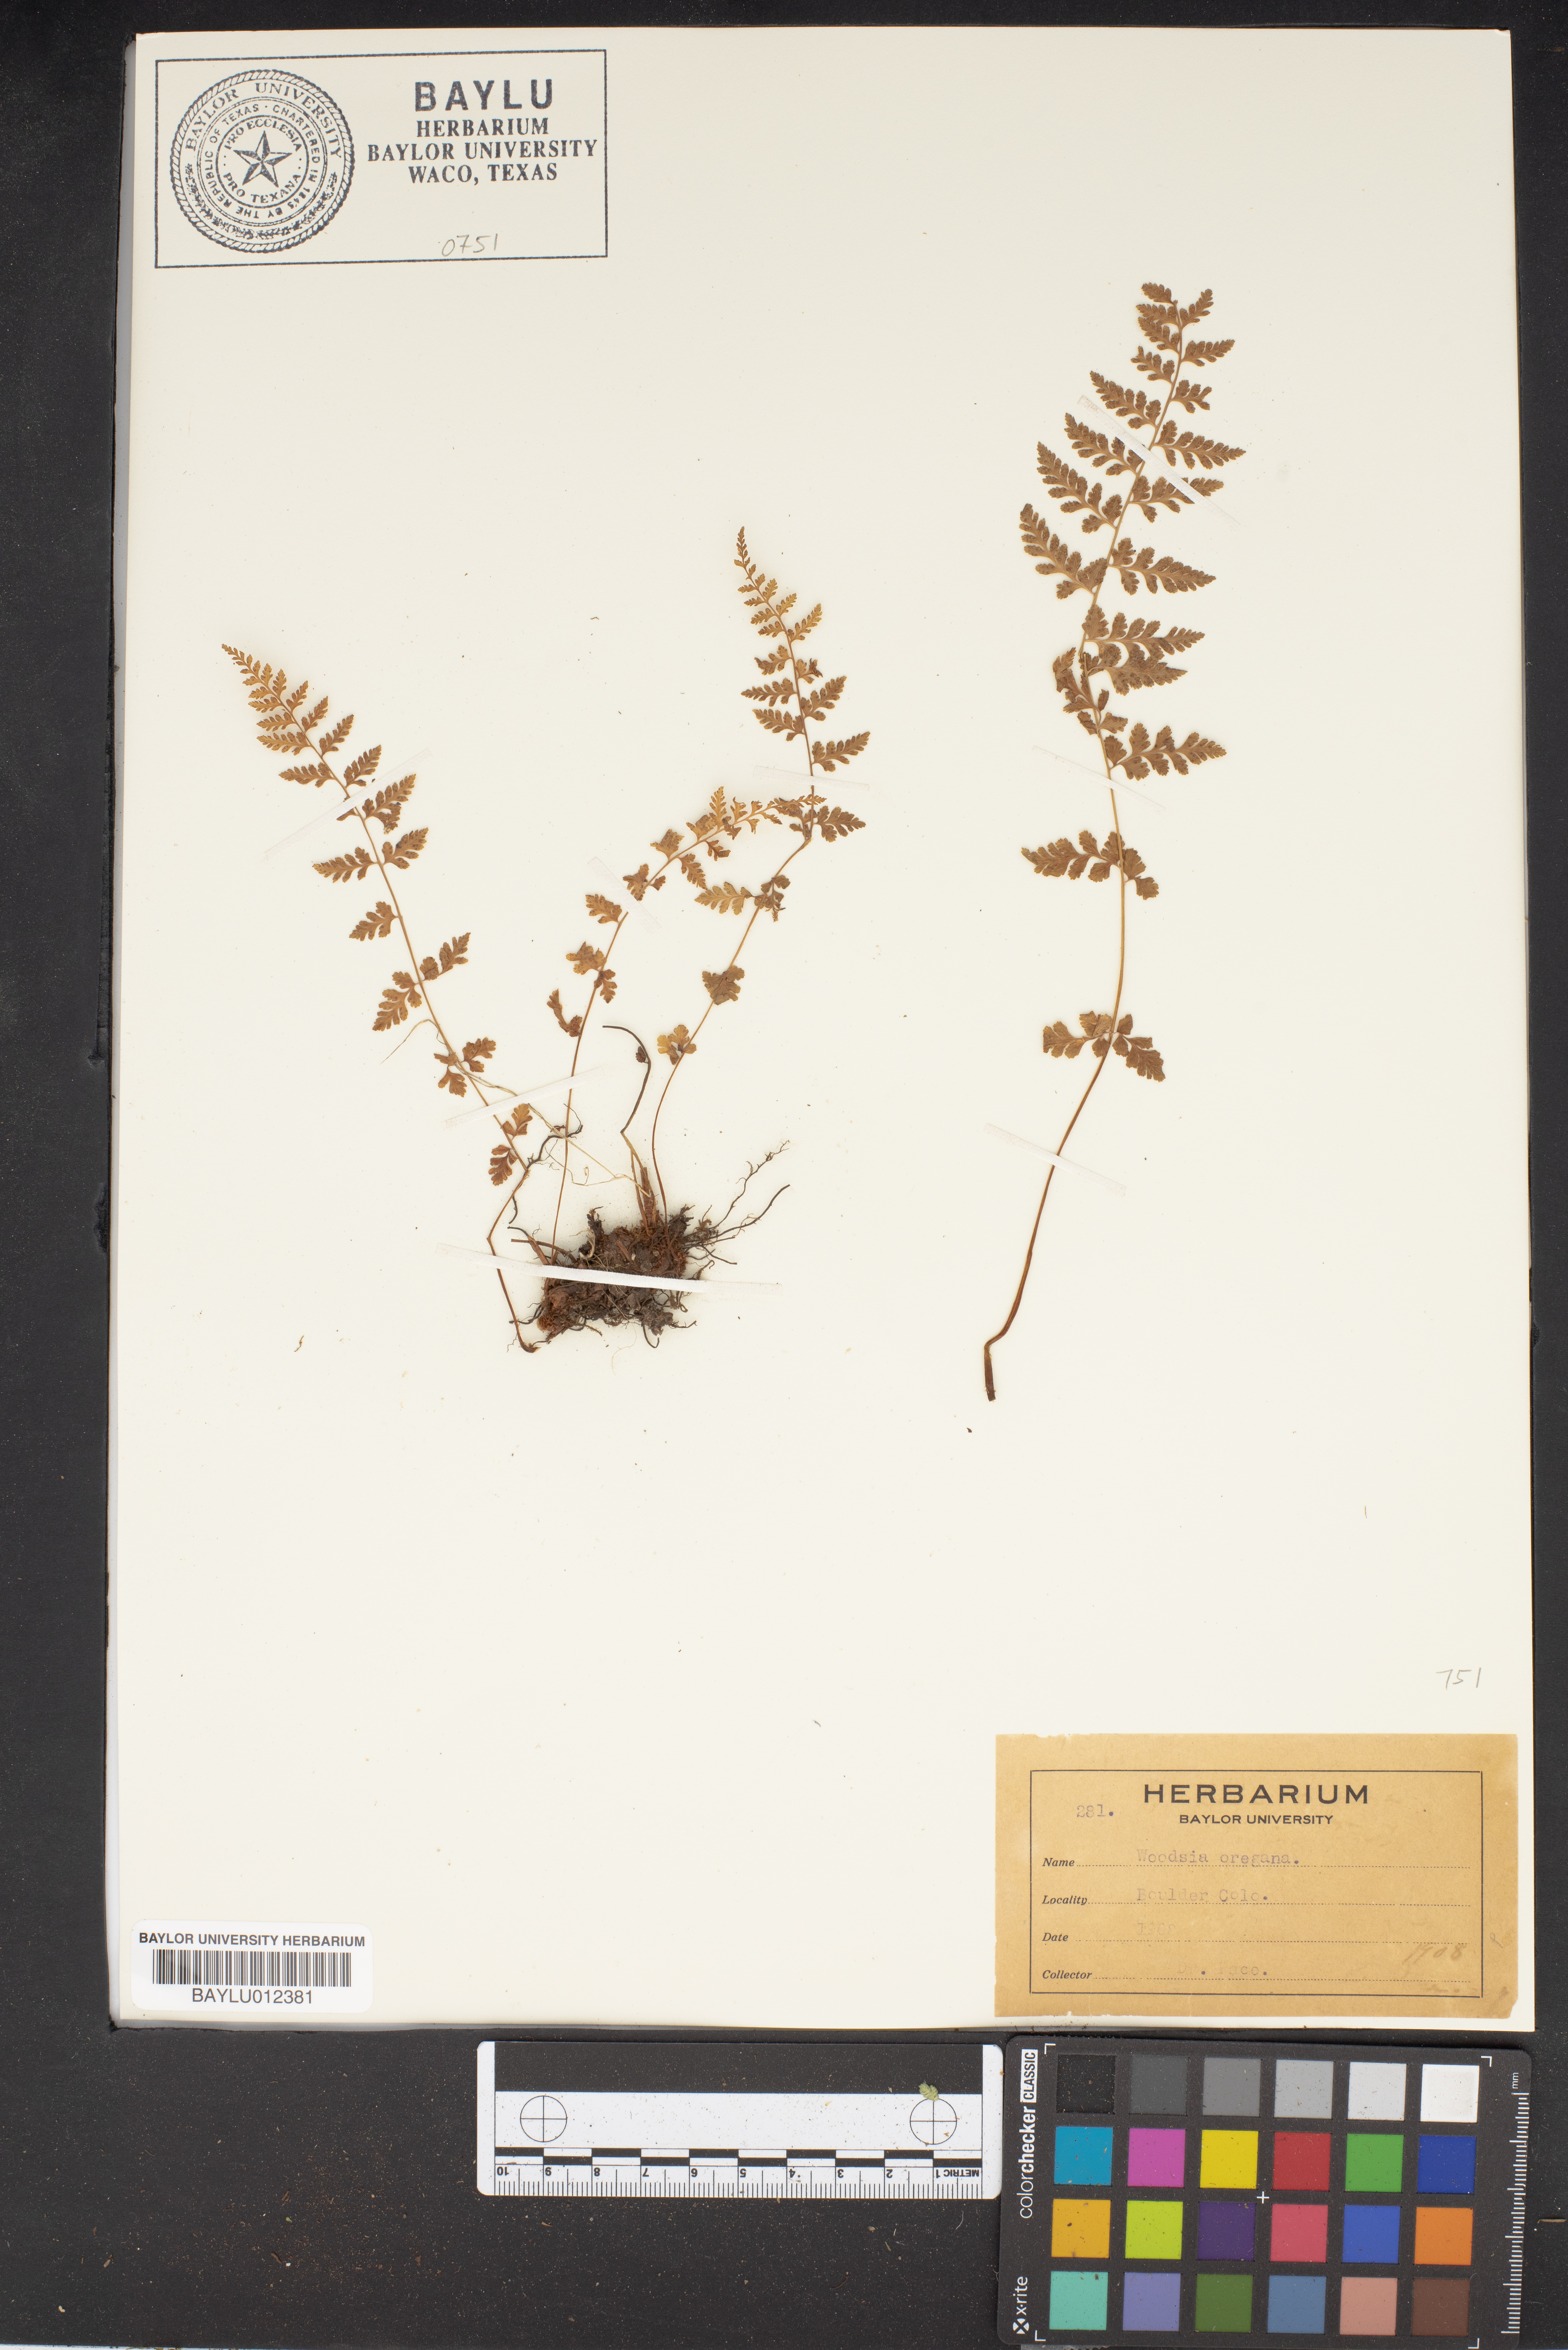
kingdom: Plantae
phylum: Tracheophyta
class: Polypodiopsida
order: Polypodiales
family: Woodsiaceae
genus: Physematium
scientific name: Physematium oreganum
